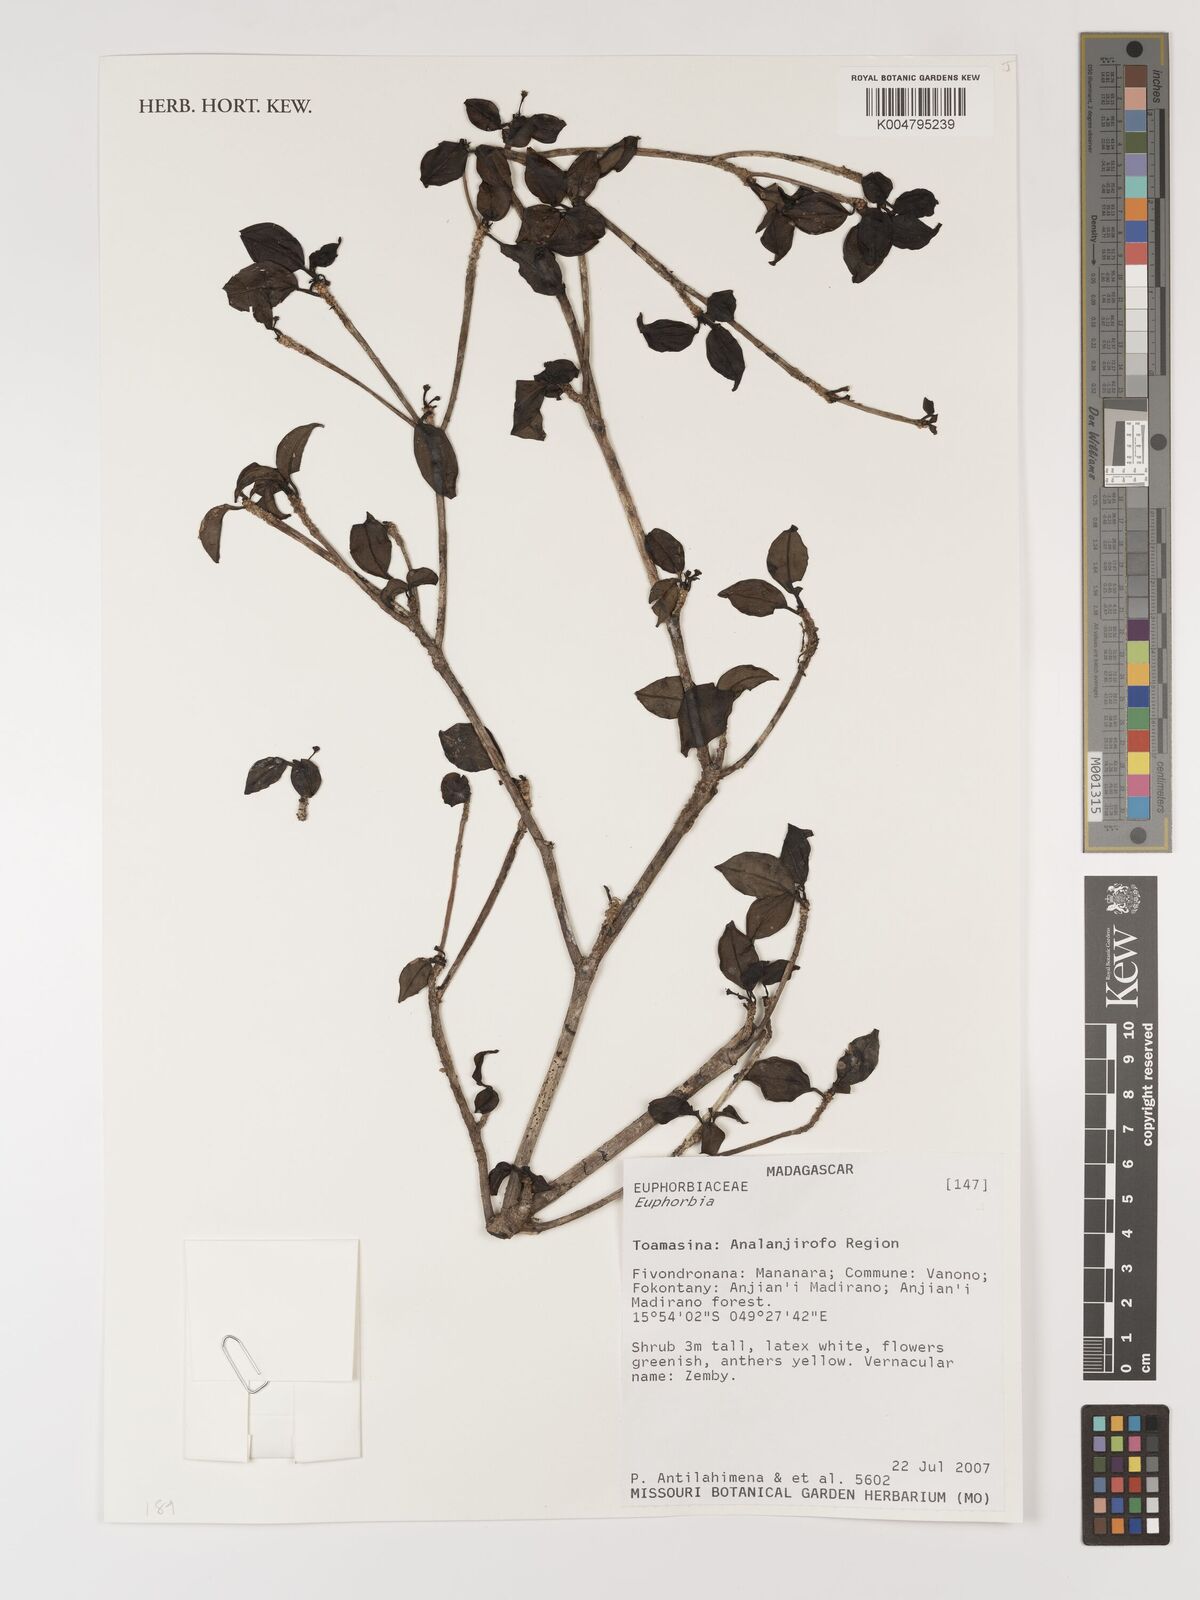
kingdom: Plantae
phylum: Tracheophyta
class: Magnoliopsida
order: Malpighiales
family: Euphorbiaceae
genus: Euphorbia
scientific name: Euphorbia
